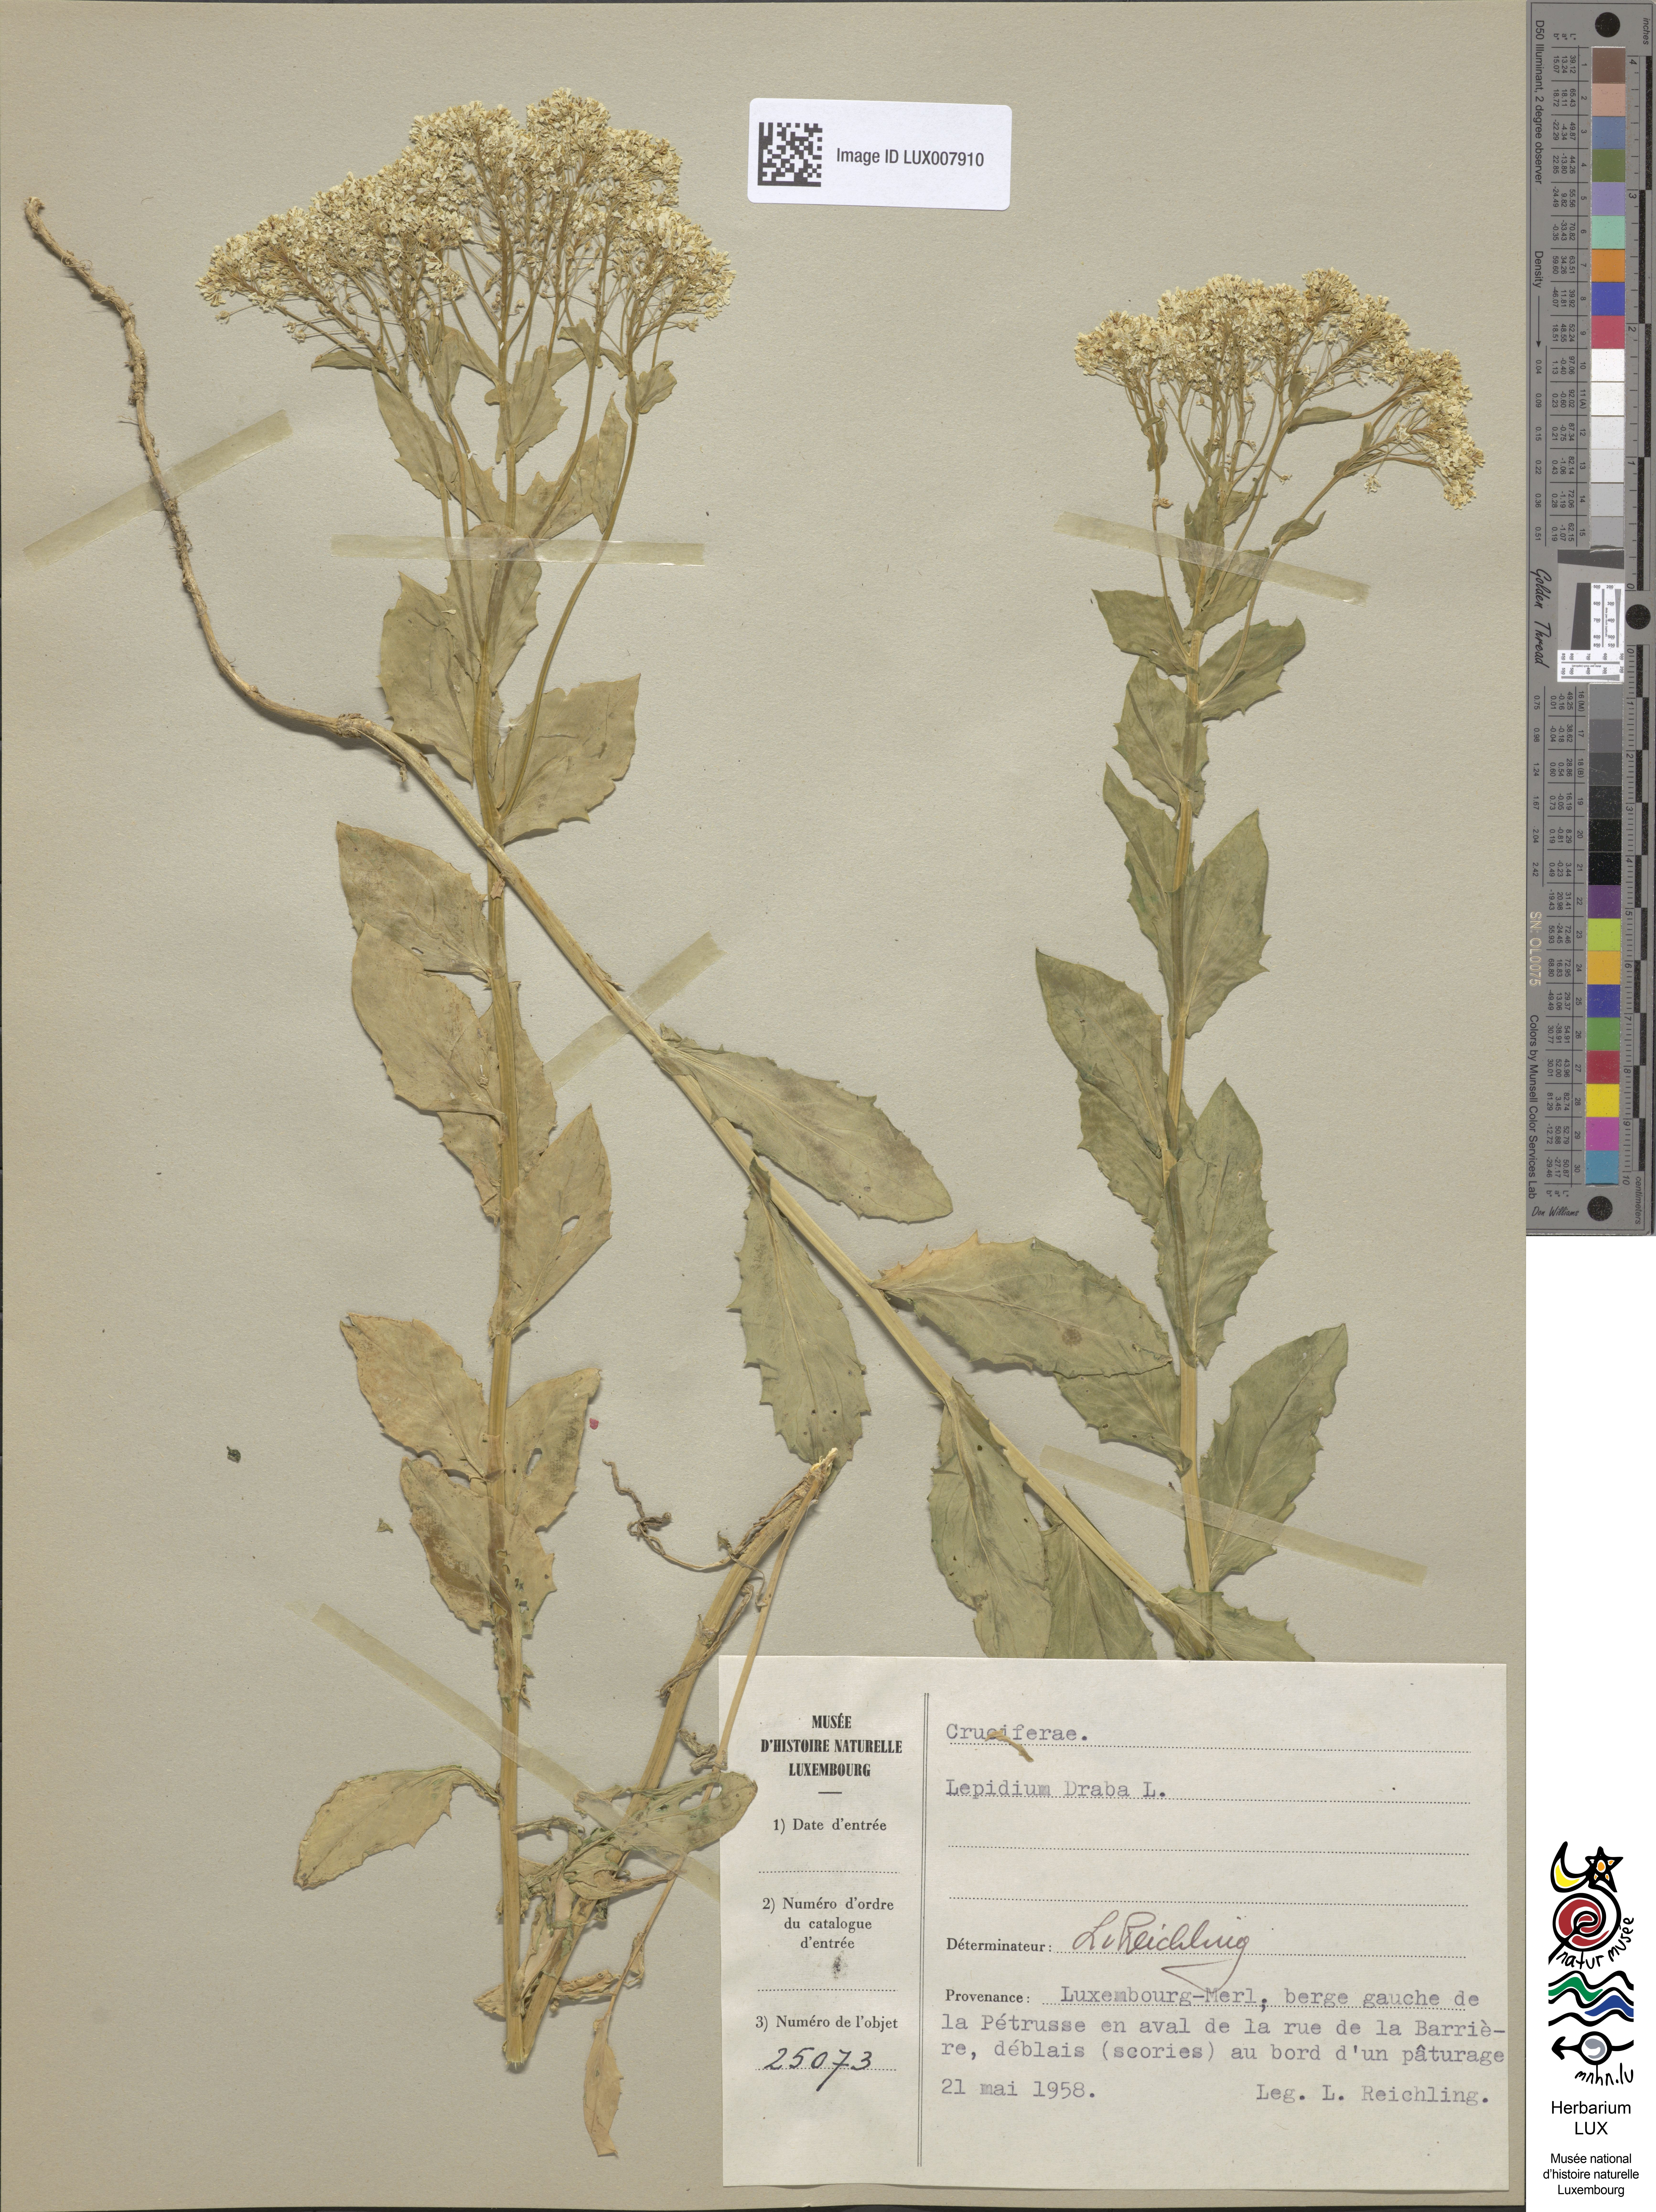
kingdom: Plantae
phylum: Tracheophyta
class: Magnoliopsida
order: Brassicales
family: Brassicaceae
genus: Lepidium
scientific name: Lepidium draba
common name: Hoary cress
